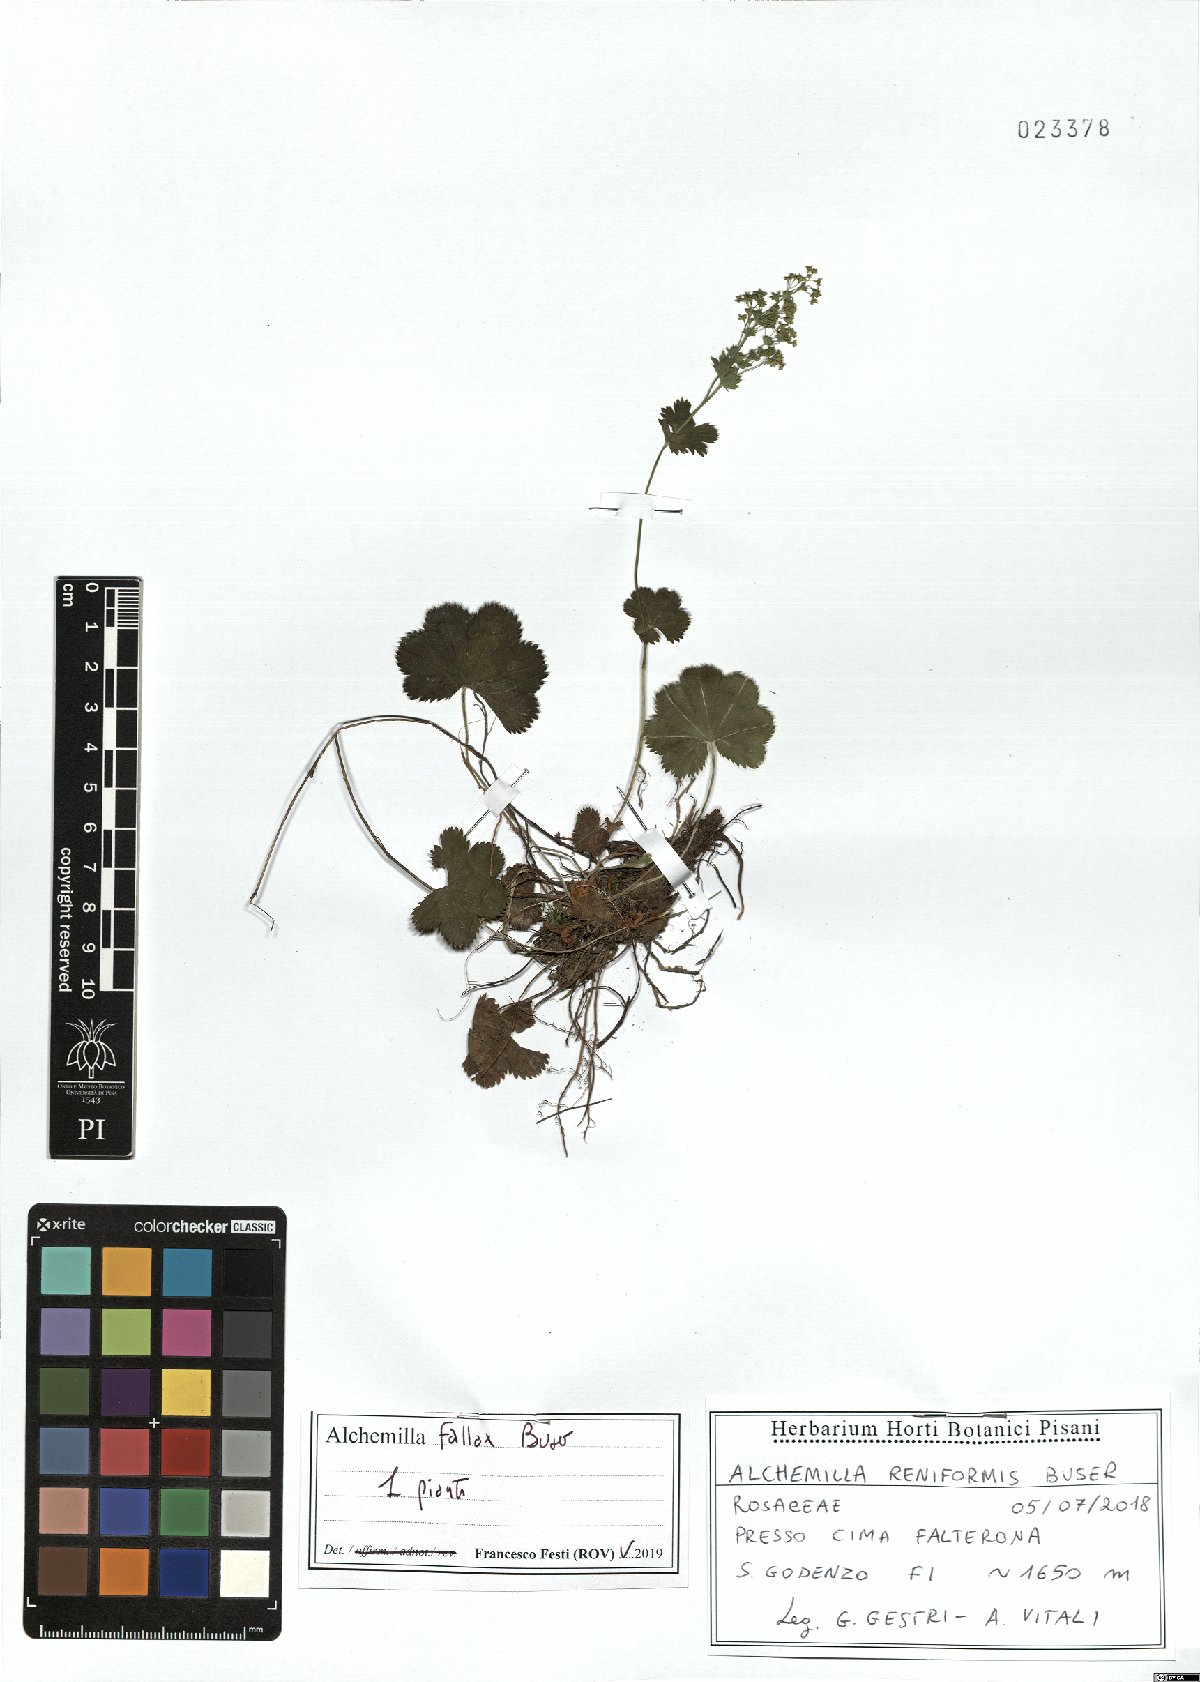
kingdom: Plantae
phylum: Tracheophyta
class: Magnoliopsida
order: Rosales
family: Rosaceae
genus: Alchemilla
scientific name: Alchemilla fallax
